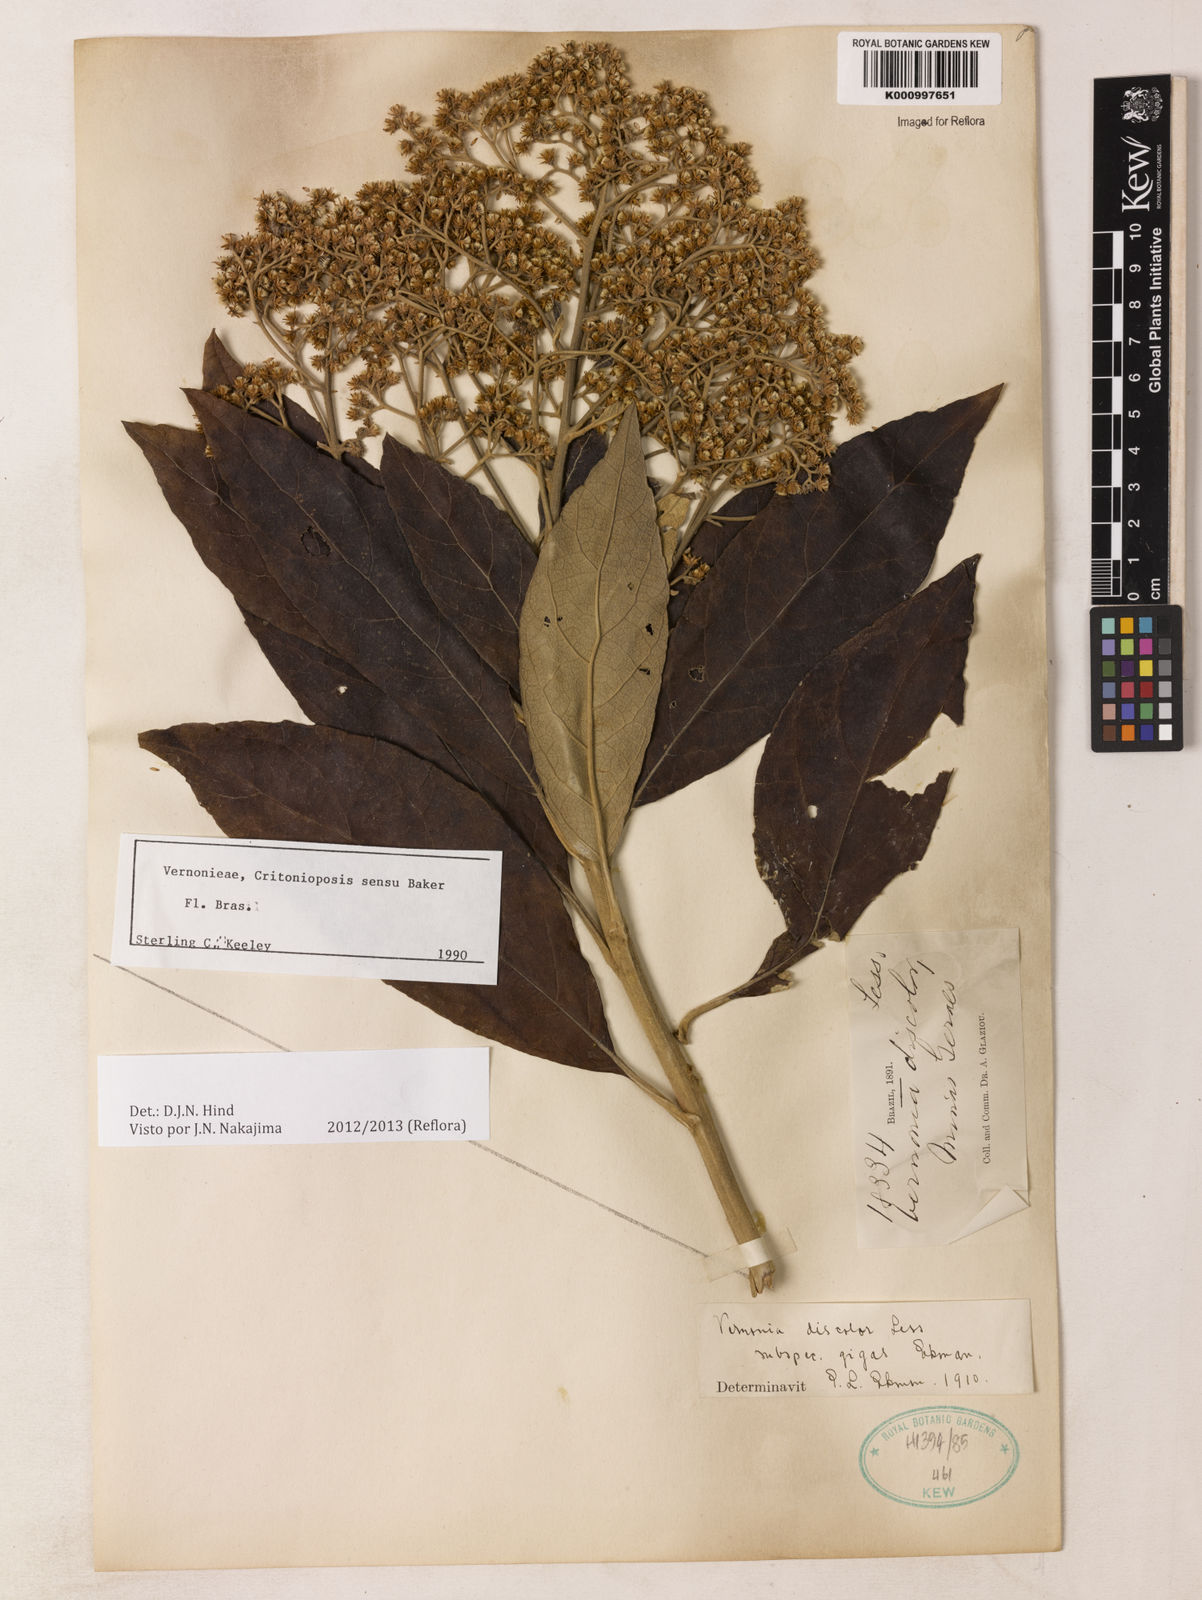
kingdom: Plantae
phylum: Tracheophyta
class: Magnoliopsida
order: Asterales
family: Asteraceae
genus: Vernonanthura
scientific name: Vernonanthura discolor
